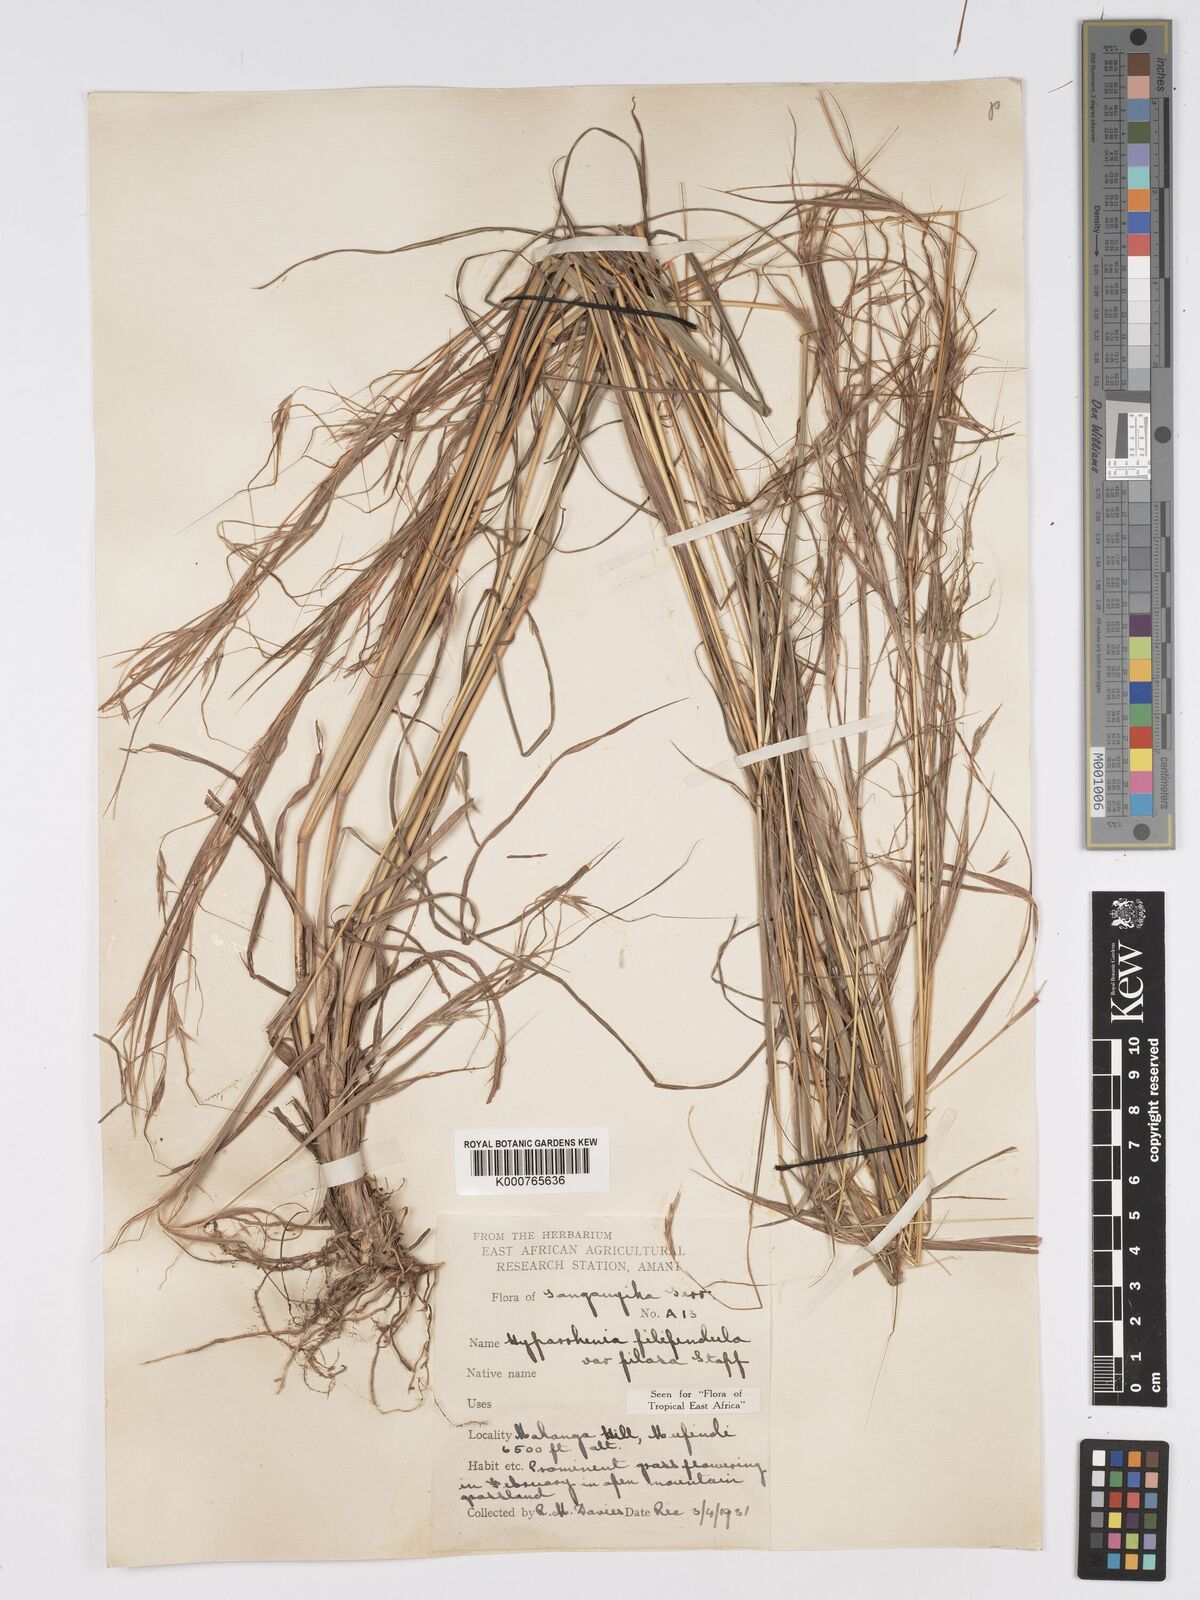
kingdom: Plantae
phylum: Tracheophyta
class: Liliopsida
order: Poales
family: Poaceae
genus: Hyparrhenia
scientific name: Hyparrhenia filipendula
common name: Tambookie grass
